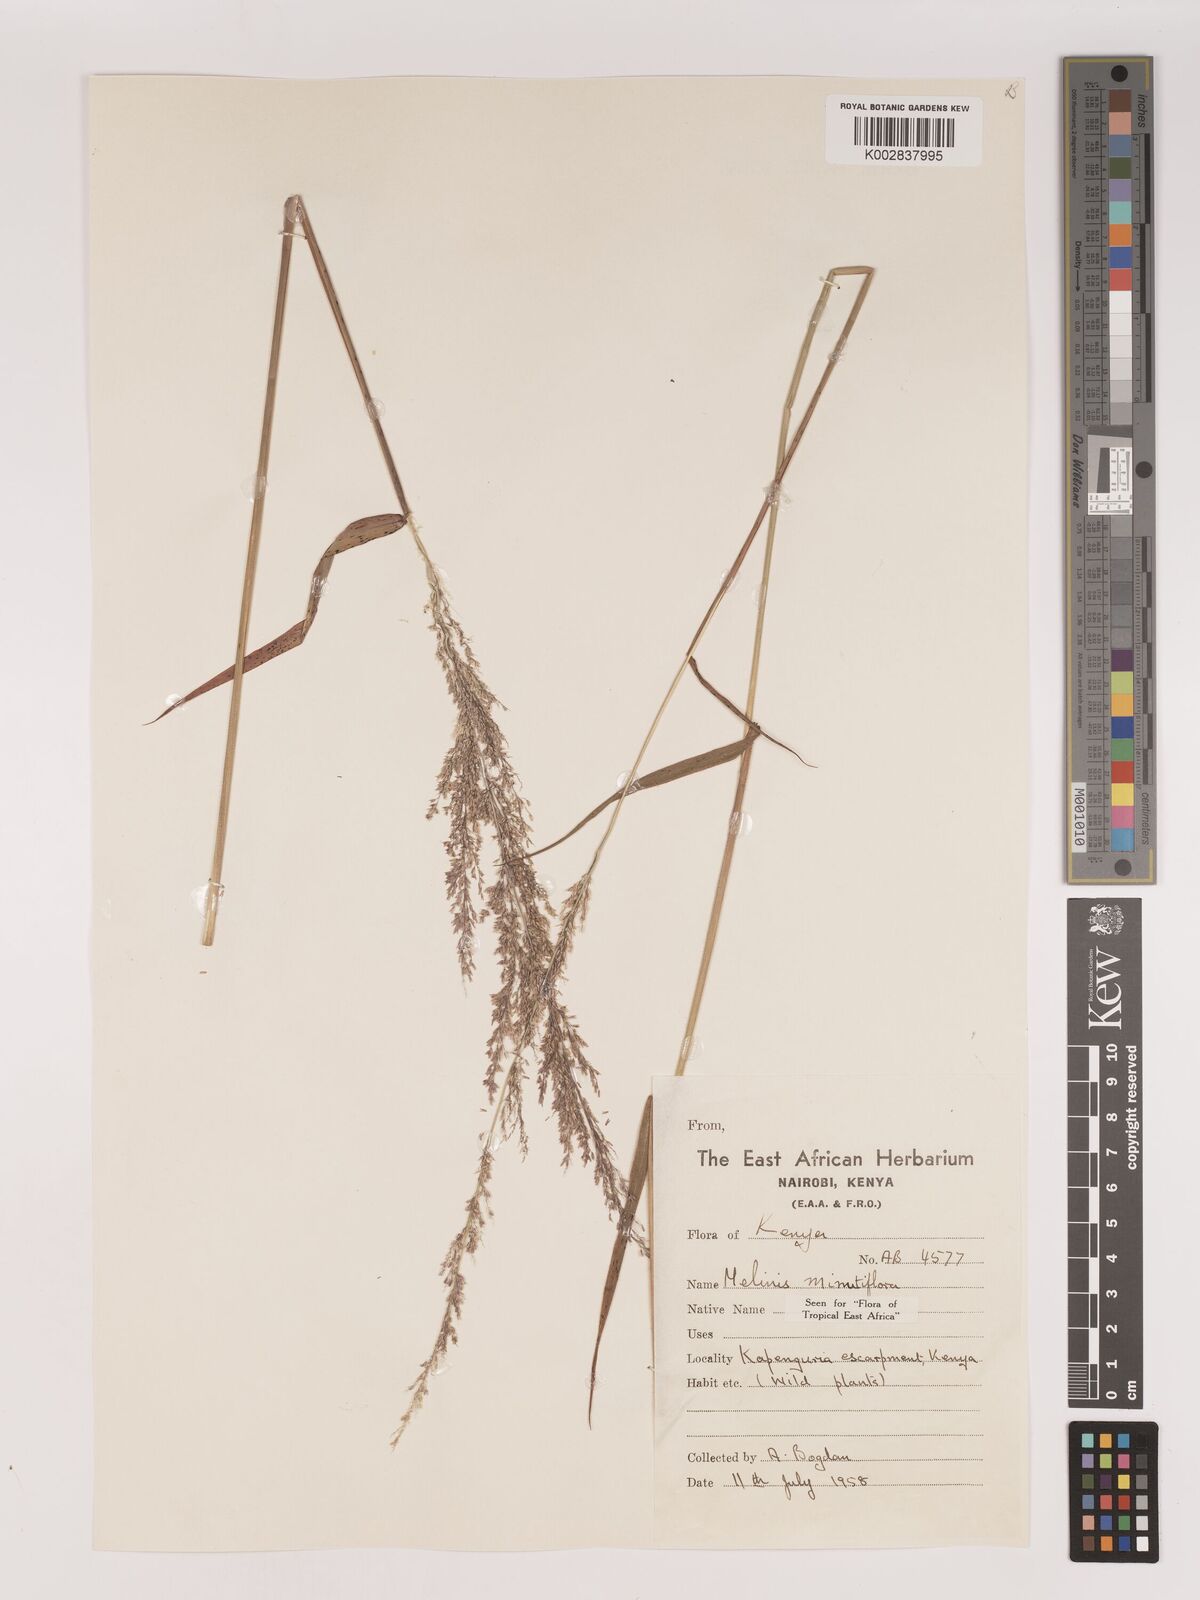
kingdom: Plantae
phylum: Tracheophyta
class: Liliopsida
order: Poales
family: Poaceae
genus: Melinis
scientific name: Melinis minutiflora
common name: Molassesgrass
